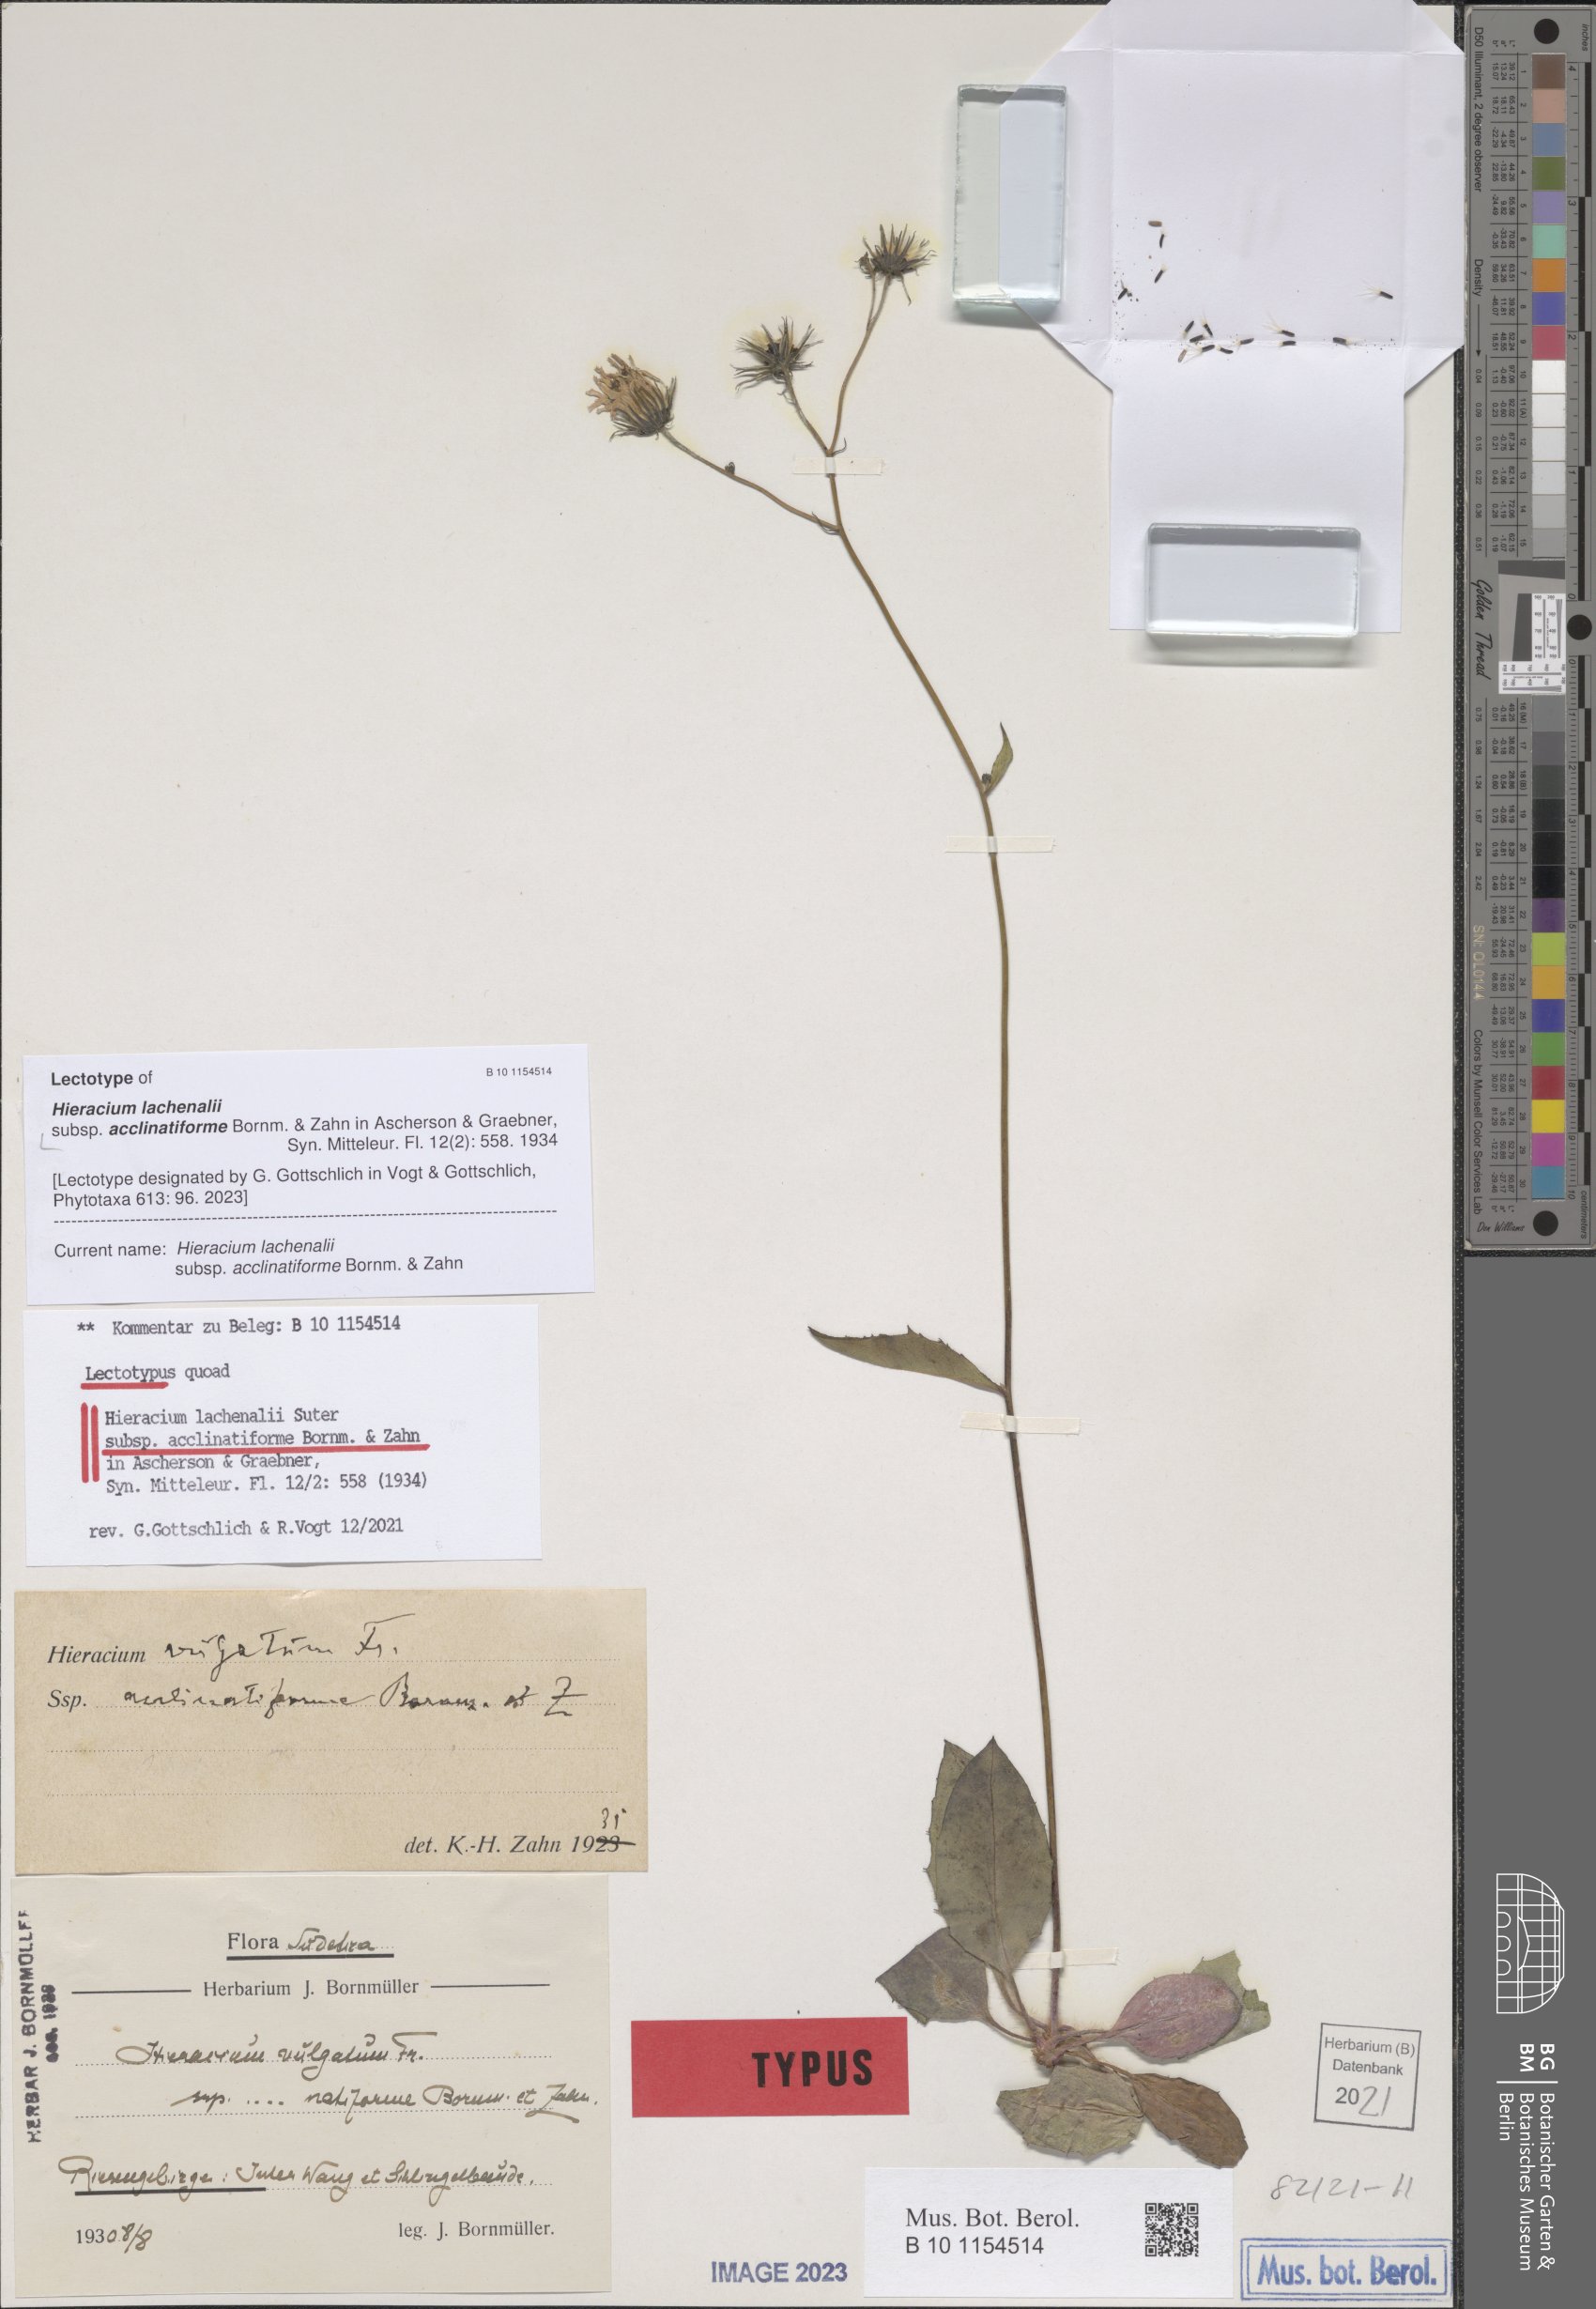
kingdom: Plantae
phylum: Tracheophyta
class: Magnoliopsida
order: Asterales
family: Asteraceae
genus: Hieracium
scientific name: Hieracium lachenalii
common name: Common hawkweed
